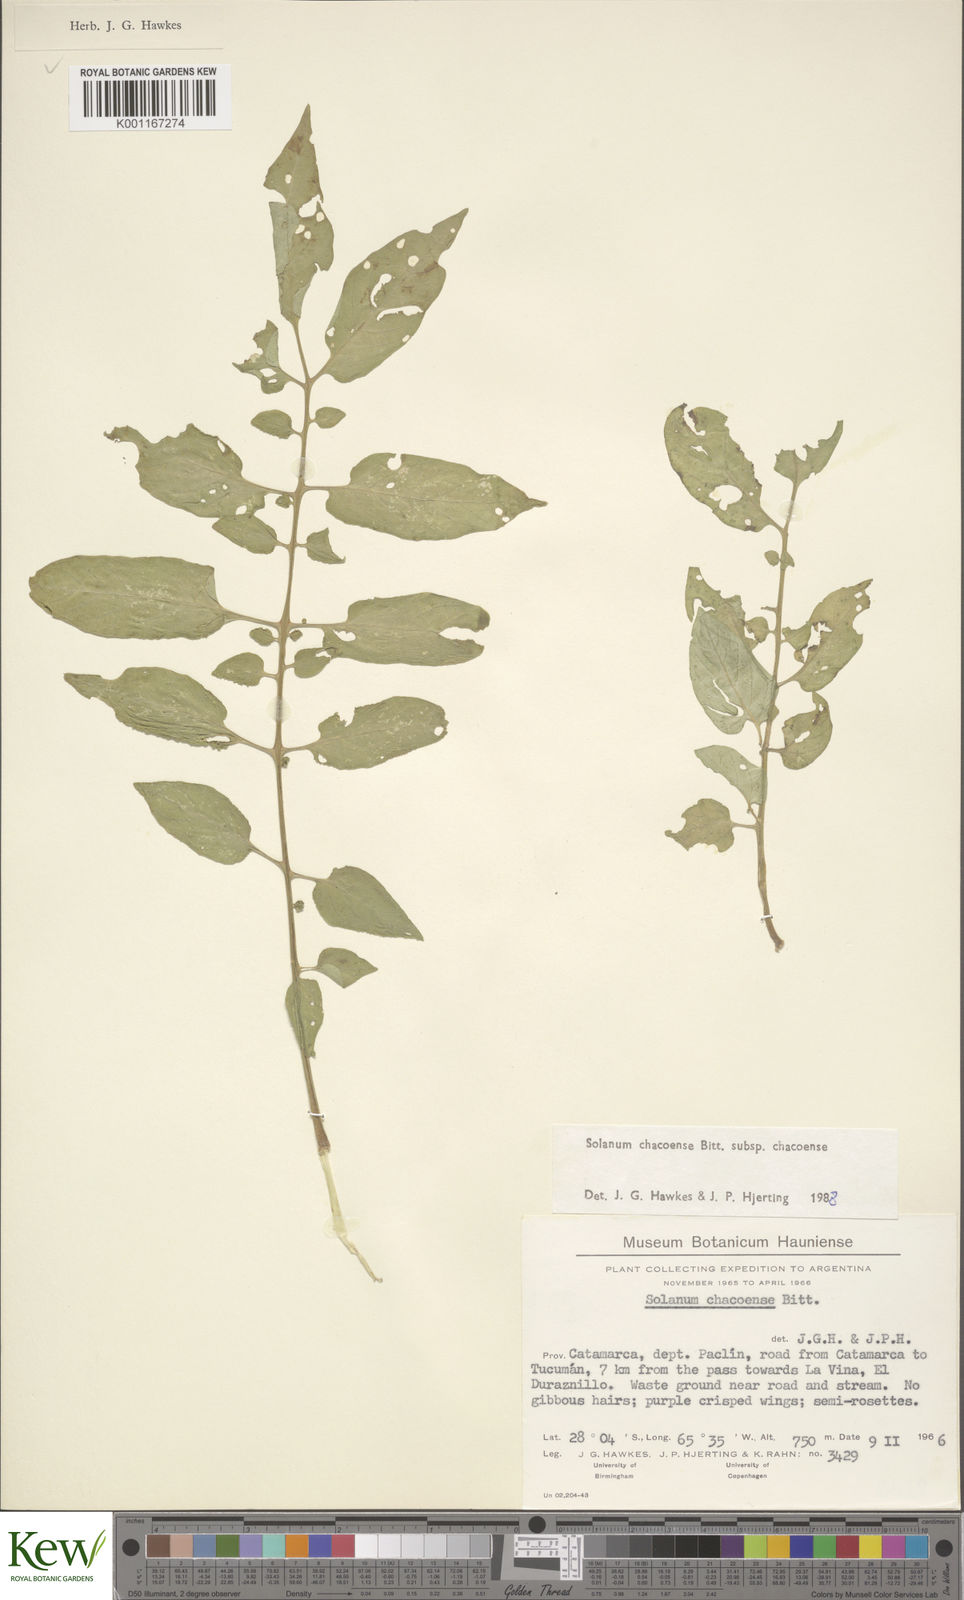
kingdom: Plantae
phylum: Tracheophyta
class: Magnoliopsida
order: Solanales
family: Solanaceae
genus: Solanum
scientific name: Solanum chacoense
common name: Chaco potato
